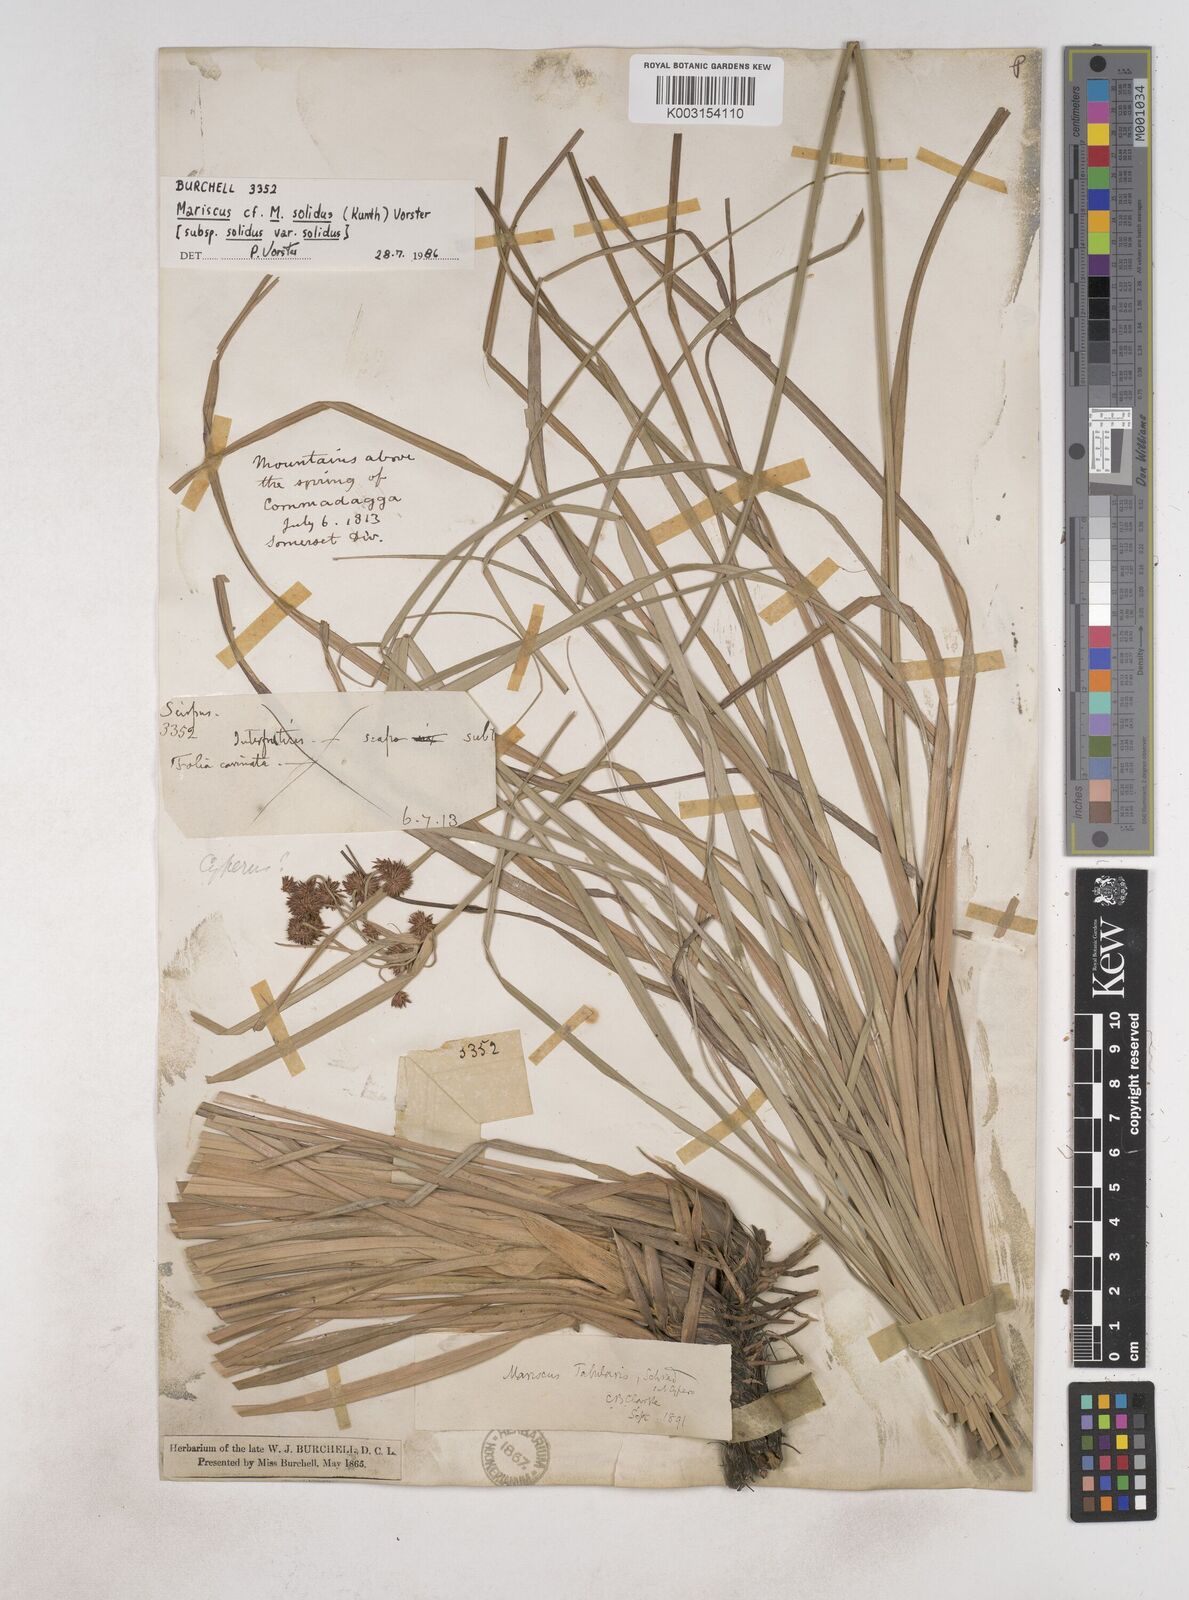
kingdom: Plantae
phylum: Tracheophyta
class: Liliopsida
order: Poales
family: Cyperaceae
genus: Cyperus
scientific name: Cyperus tabularis
